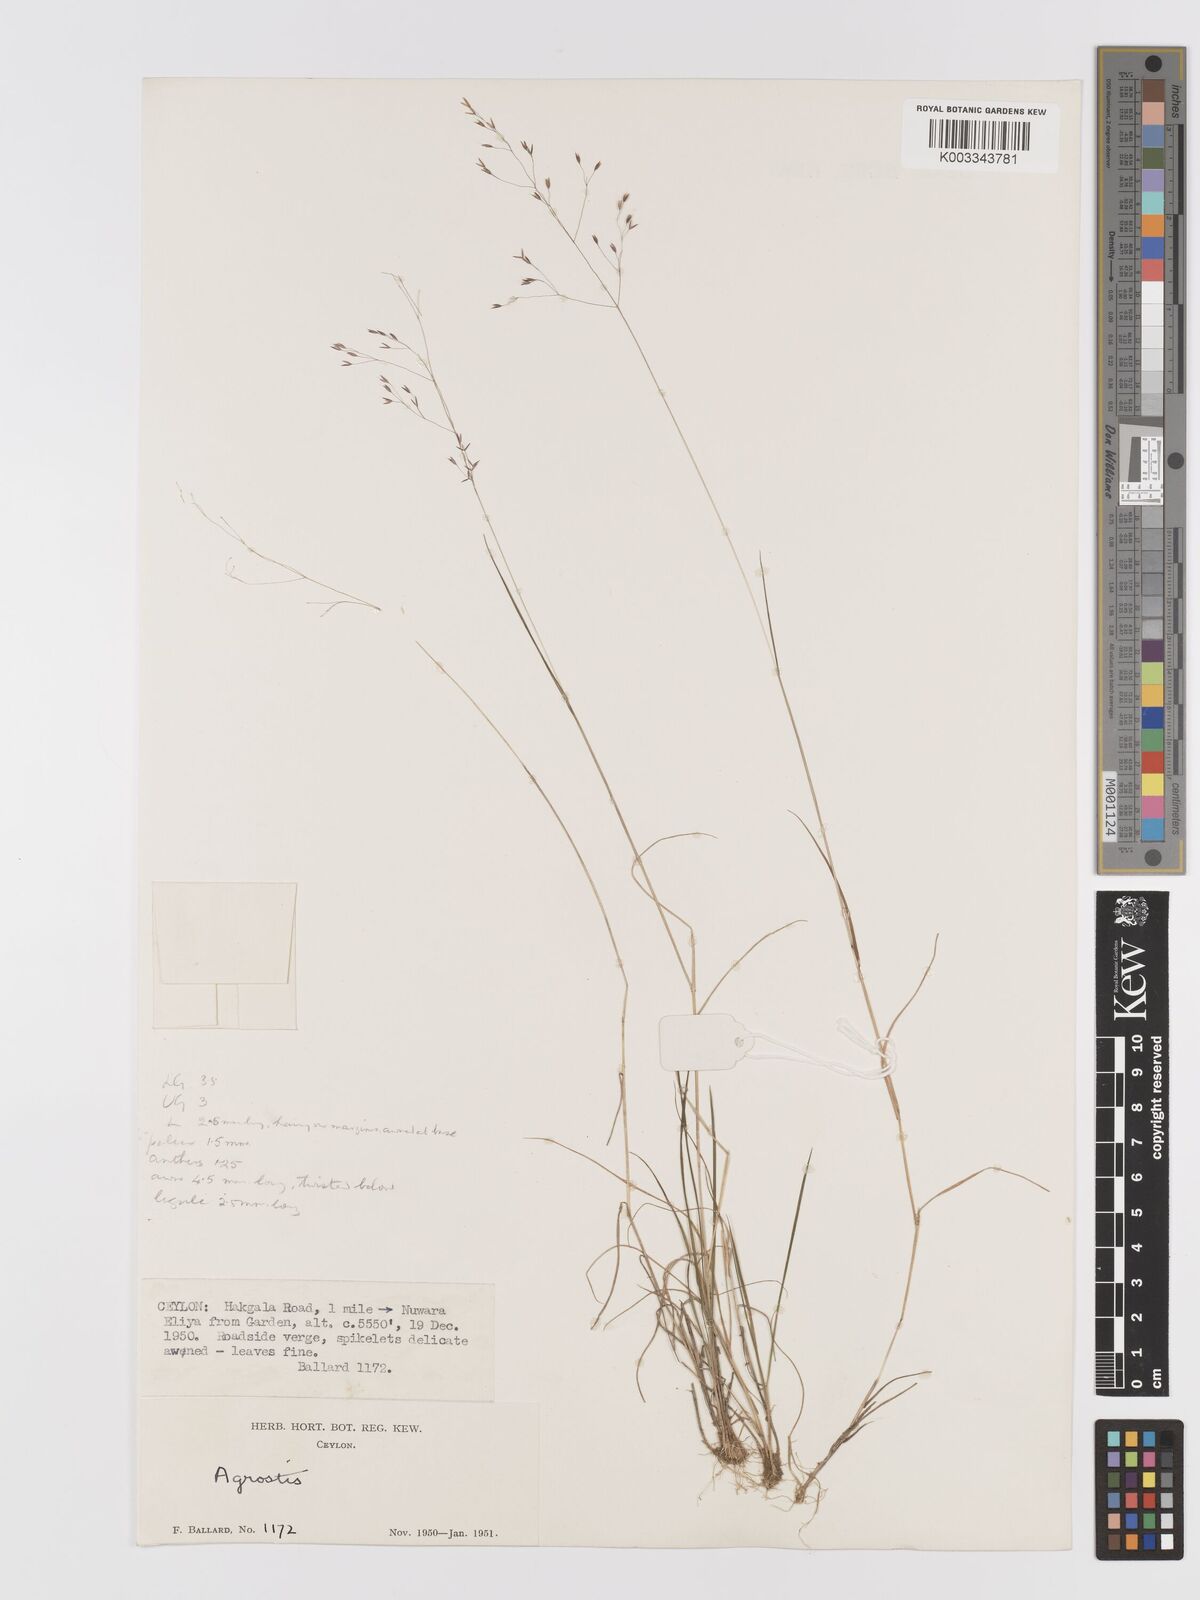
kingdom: Plantae
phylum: Tracheophyta
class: Liliopsida
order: Poales
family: Poaceae
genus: Agrostis
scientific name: Agrostis pilosula
